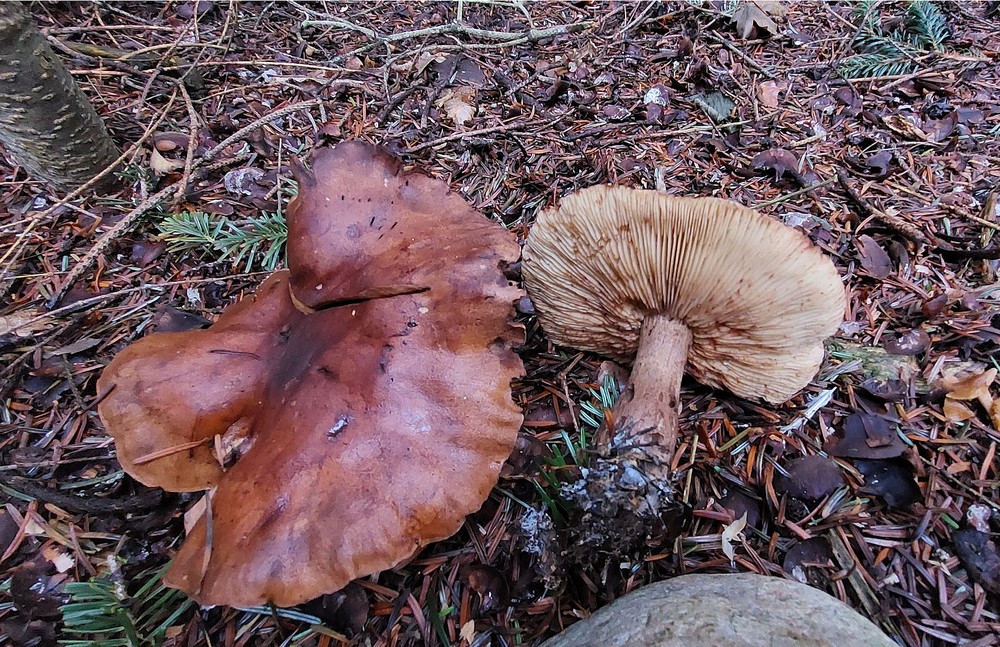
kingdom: Fungi
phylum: Basidiomycota
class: Agaricomycetes
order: Agaricales
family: Tricholomataceae
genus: Tricholoma
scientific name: Tricholoma fulvum
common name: birke-ridderhat
